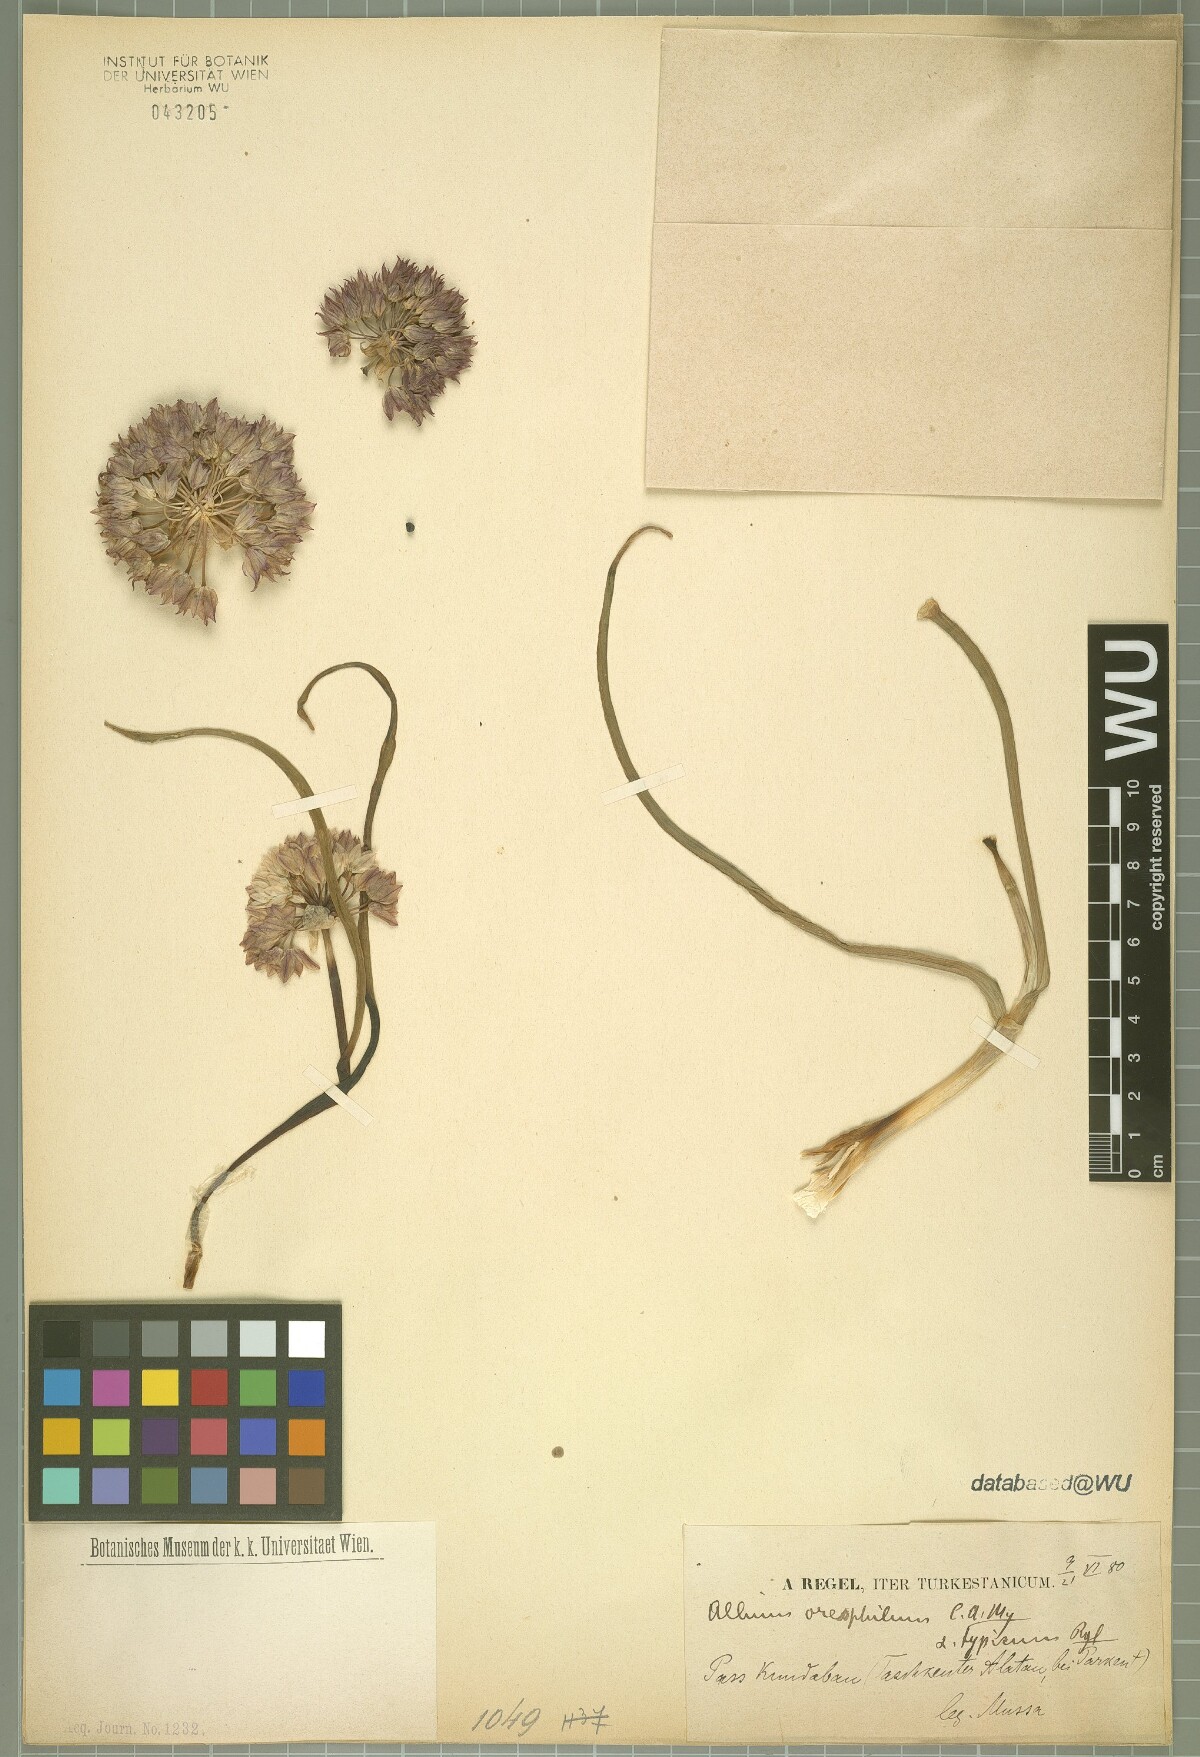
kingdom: Plantae
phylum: Tracheophyta
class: Liliopsida
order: Asparagales
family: Amaryllidaceae
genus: Allium
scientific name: Allium oreophilum
